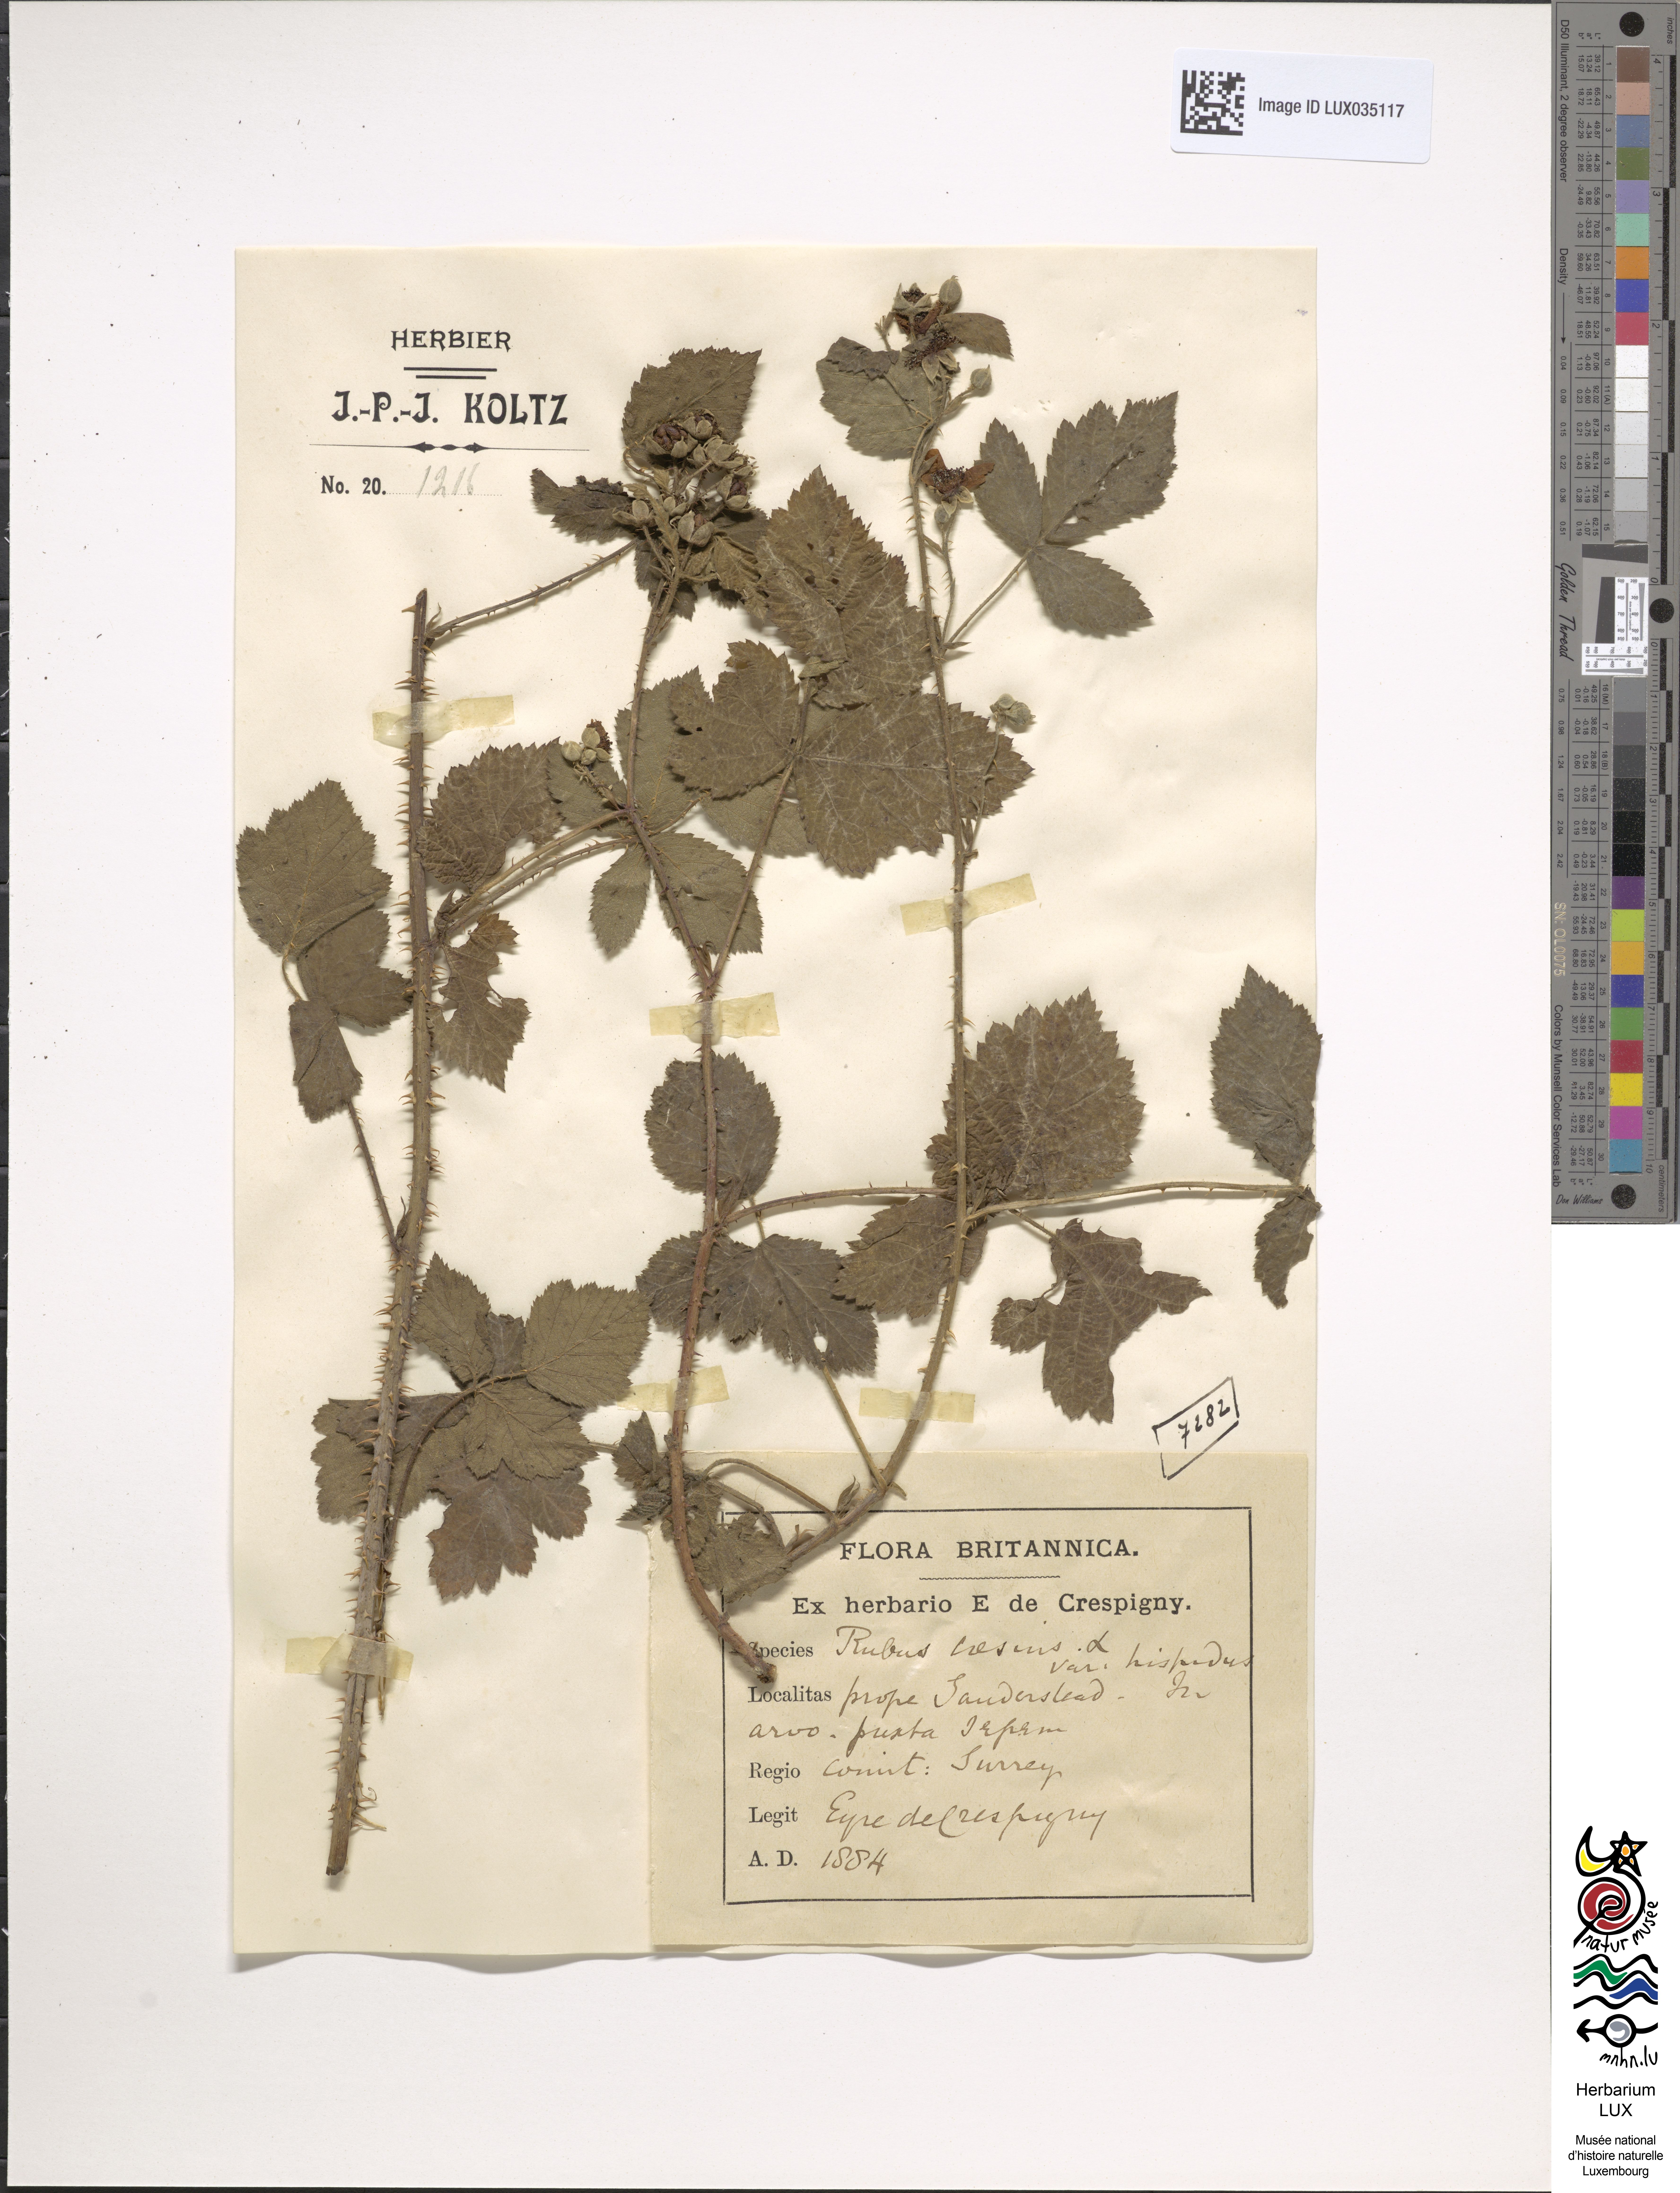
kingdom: Plantae
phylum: Tracheophyta
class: Magnoliopsida
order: Rosales
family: Rosaceae
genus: Rubus
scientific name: Rubus caesius
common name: Dewberry
